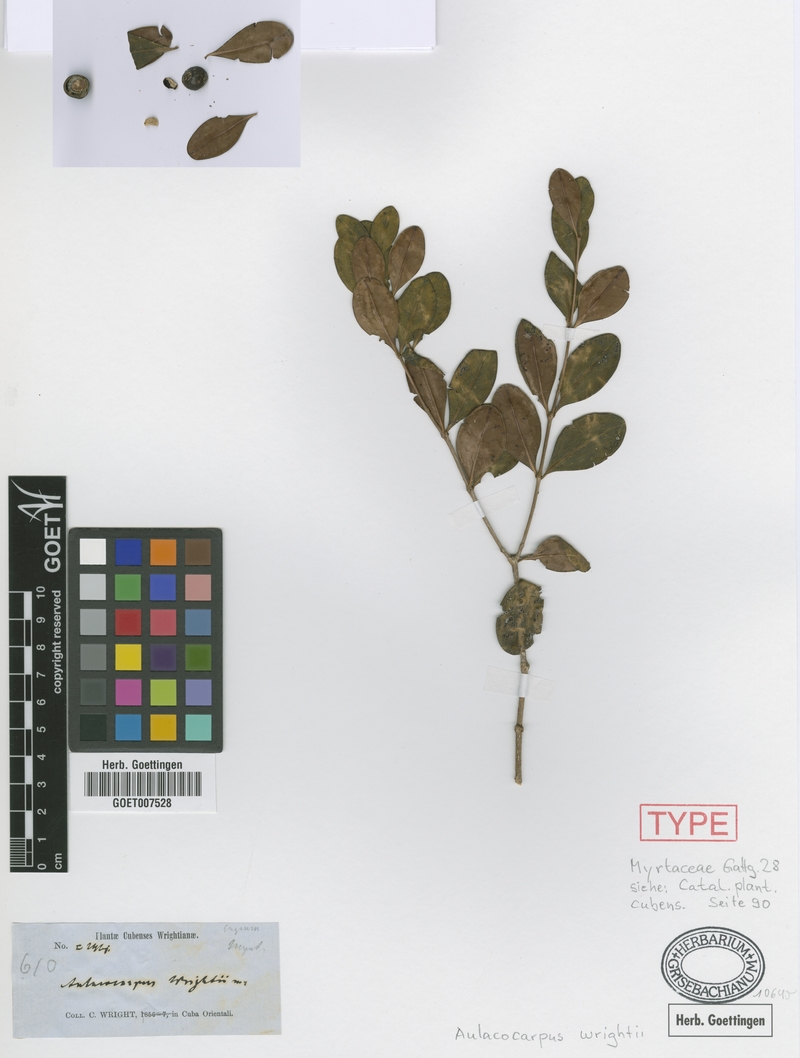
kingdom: Plantae
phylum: Tracheophyta
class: Magnoliopsida
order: Myrtales
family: Melastomataceae
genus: Mouriri
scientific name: Mouriri spathulata
